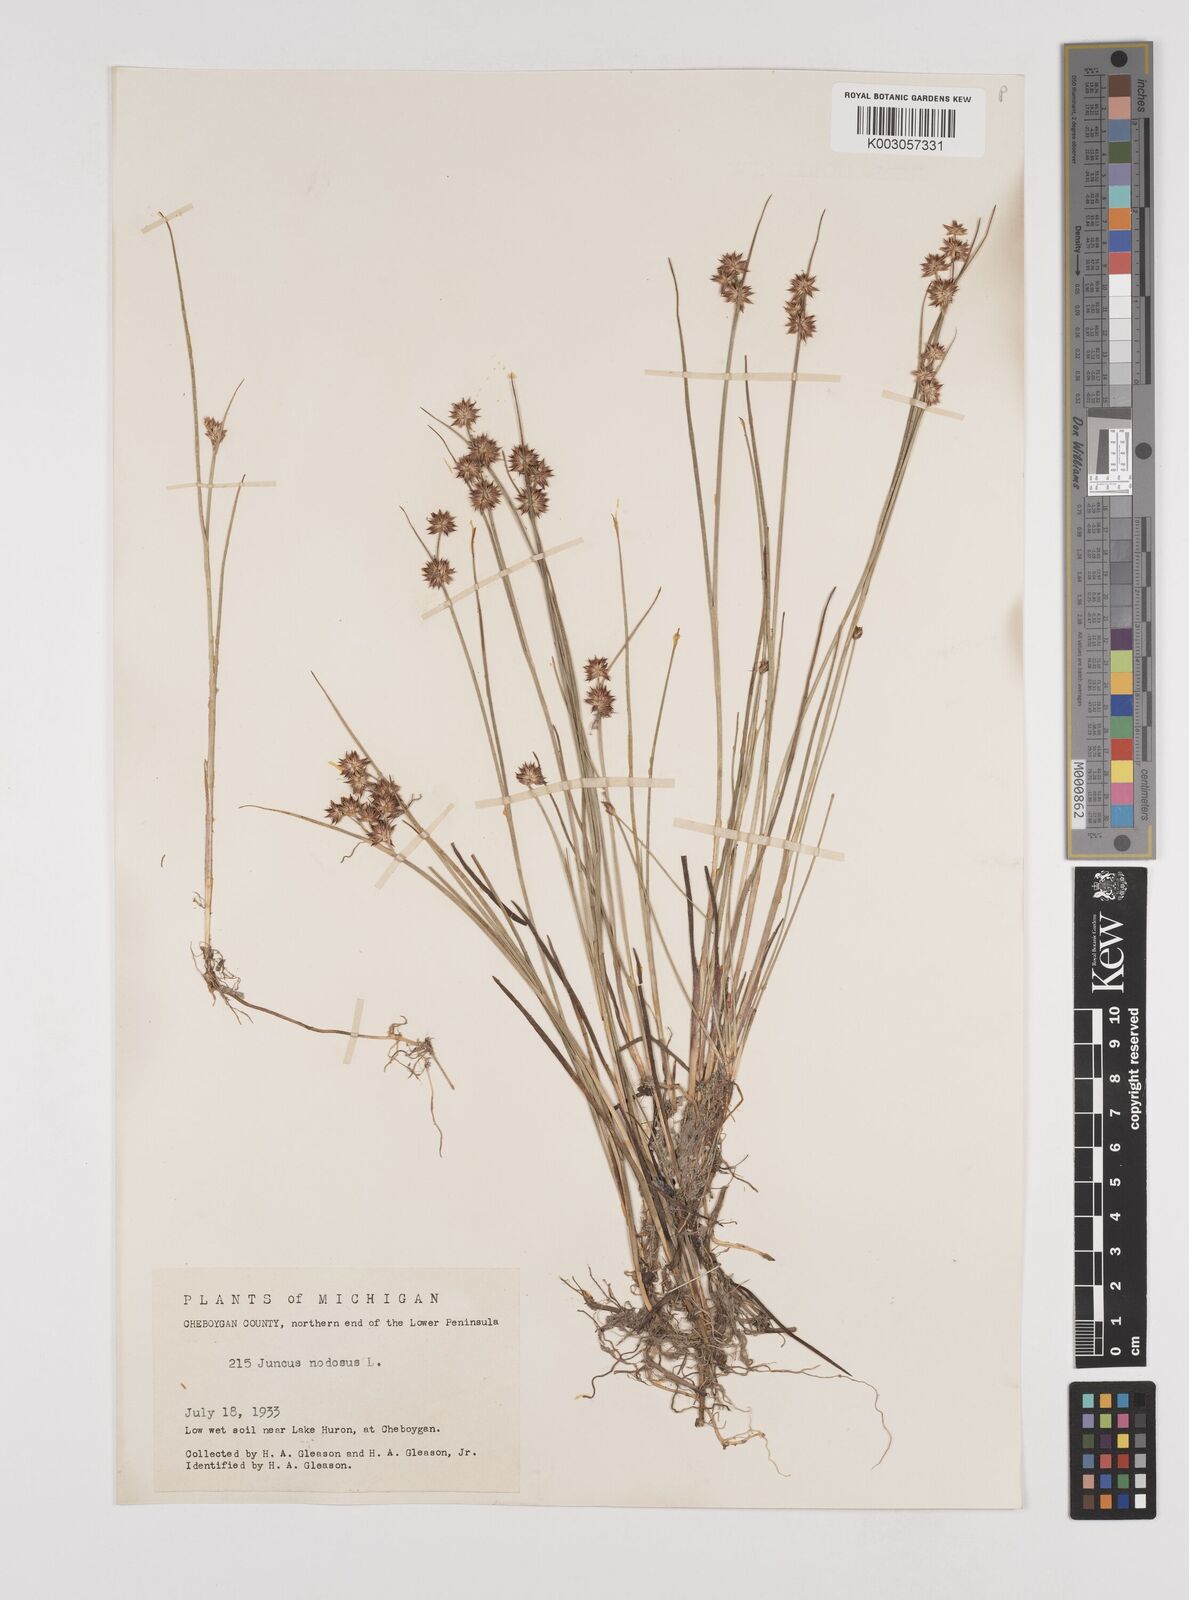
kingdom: Plantae
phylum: Tracheophyta
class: Liliopsida
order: Poales
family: Juncaceae
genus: Juncus
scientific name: Juncus nodosus
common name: Knotted rush
